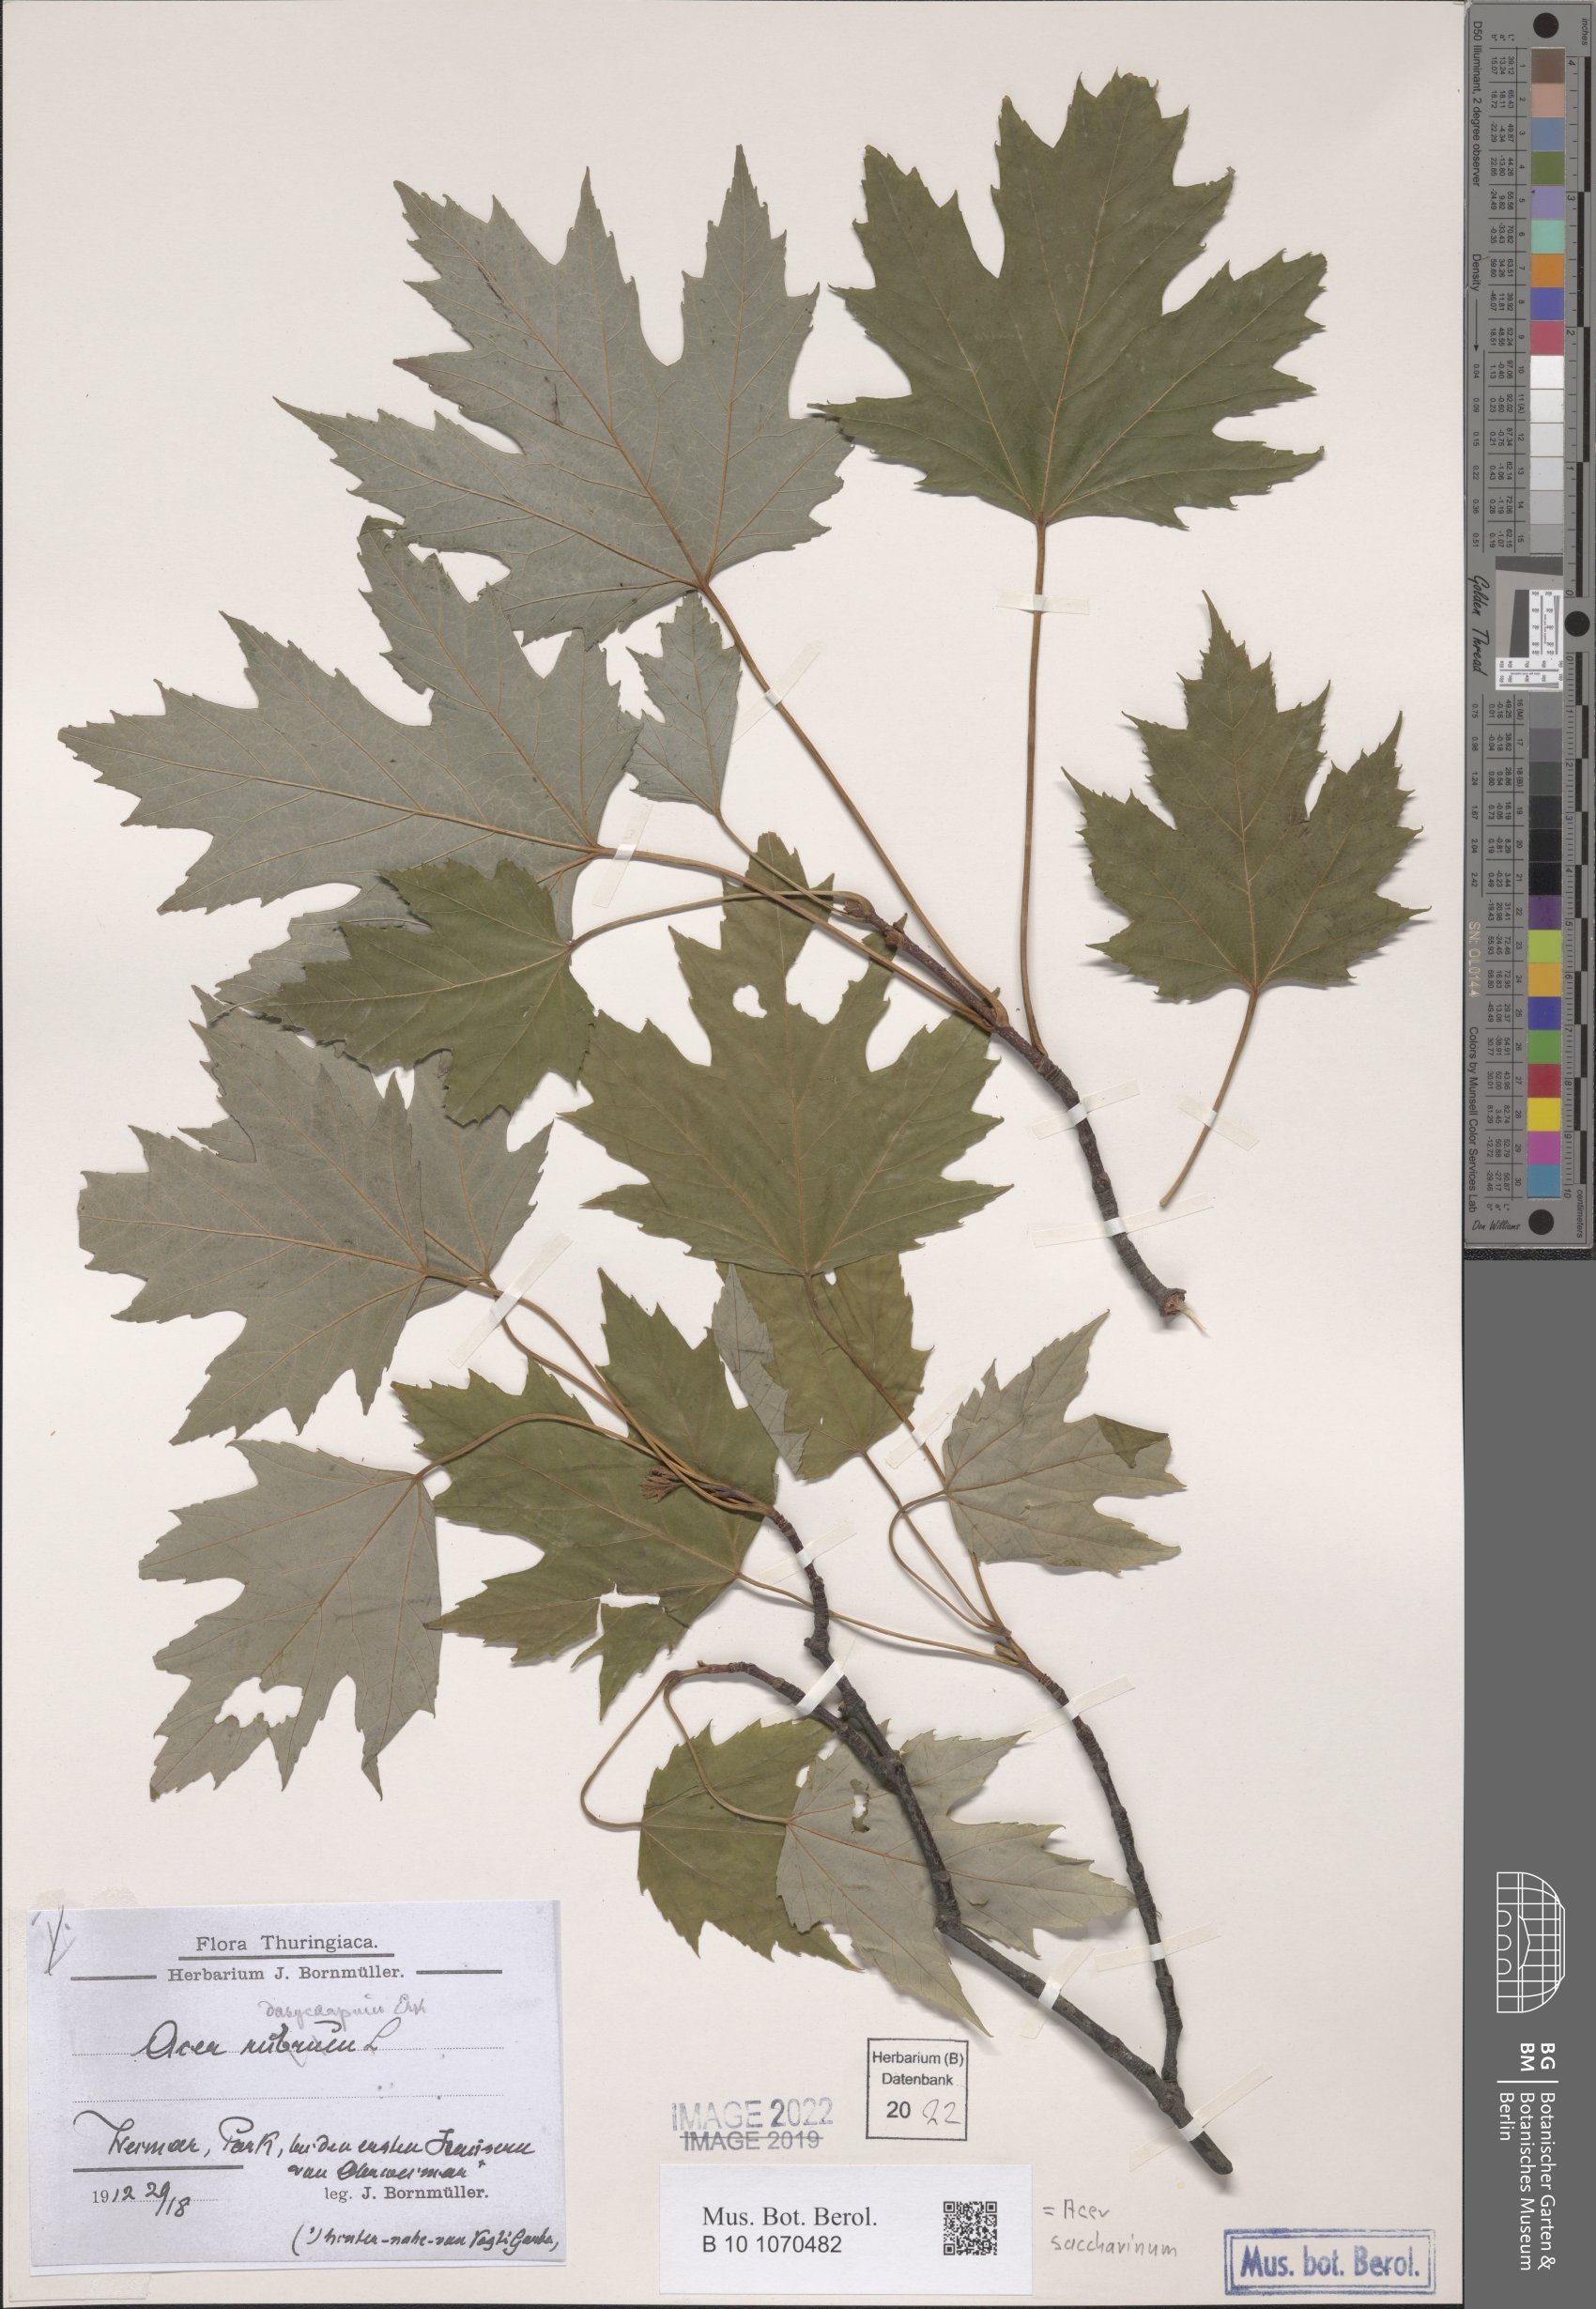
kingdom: Plantae
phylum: Tracheophyta
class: Magnoliopsida
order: Sapindales
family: Sapindaceae
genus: Acer
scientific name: Acer saccharinum
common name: Silver maple
